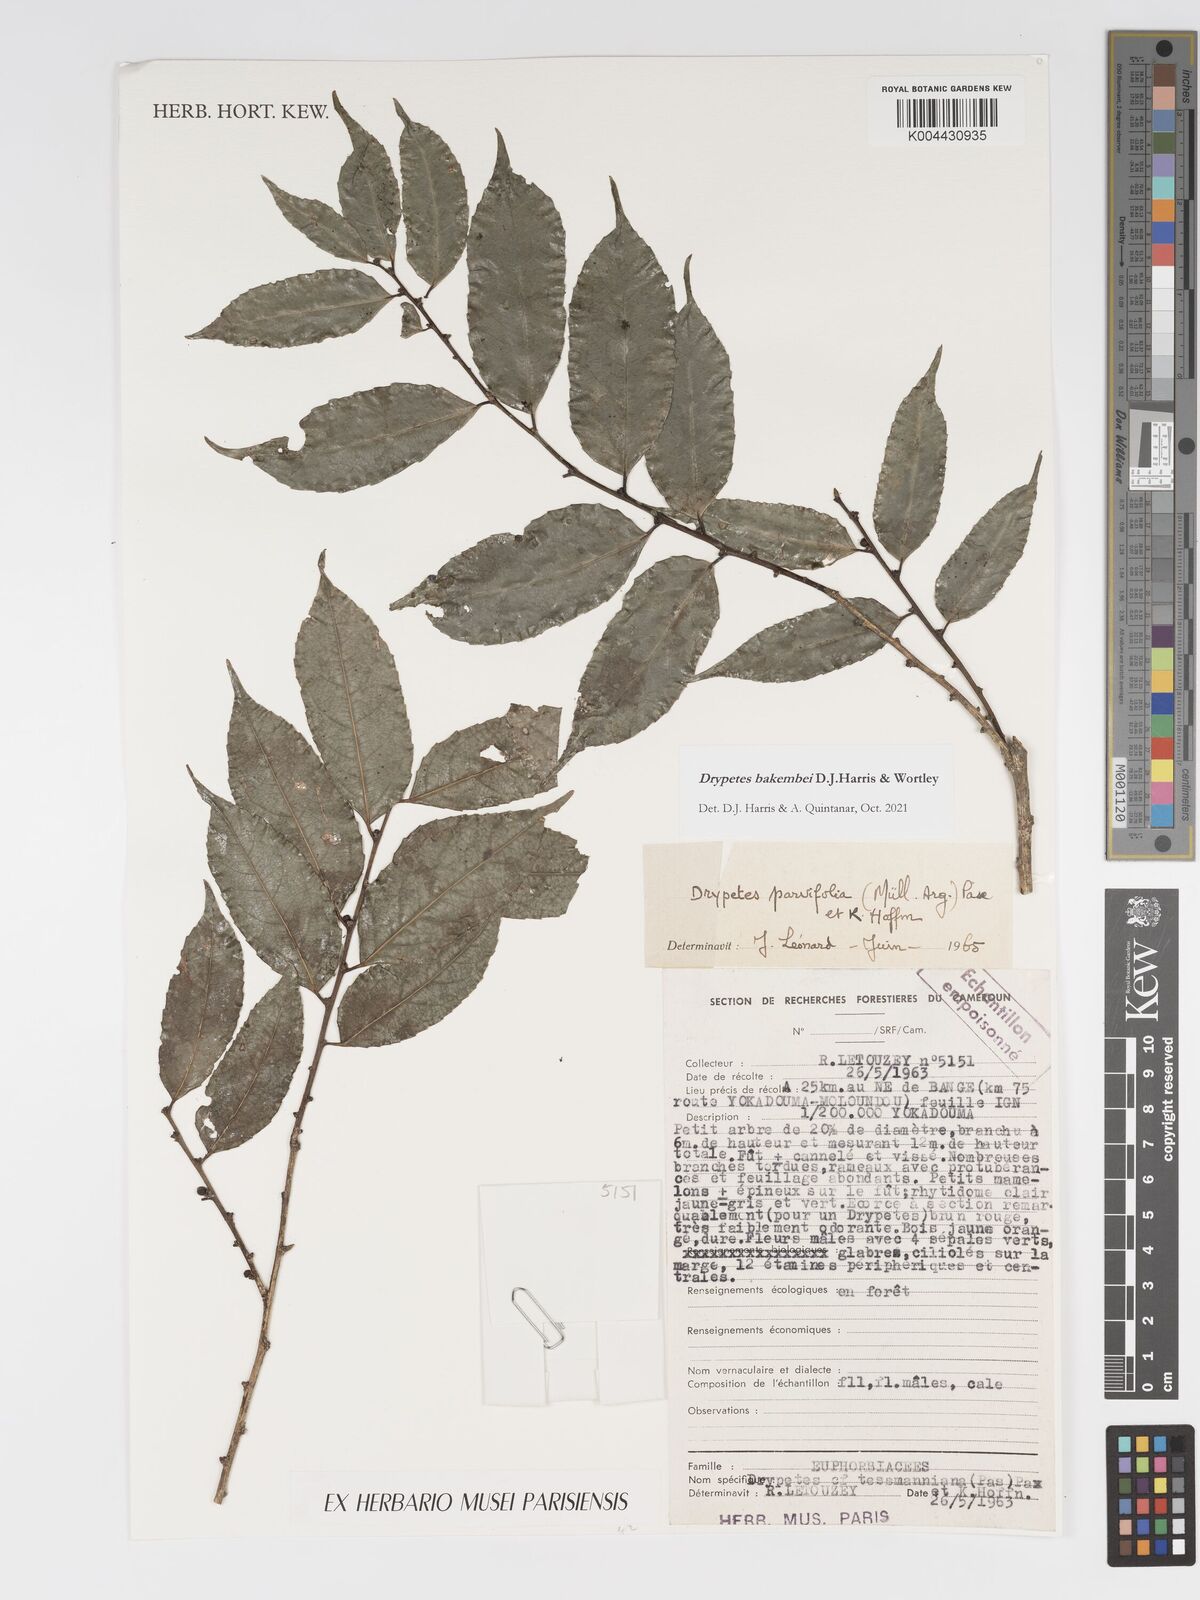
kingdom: Plantae
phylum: Tracheophyta
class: Magnoliopsida
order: Malpighiales
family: Putranjivaceae
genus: Drypetes
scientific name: Drypetes bakembei
